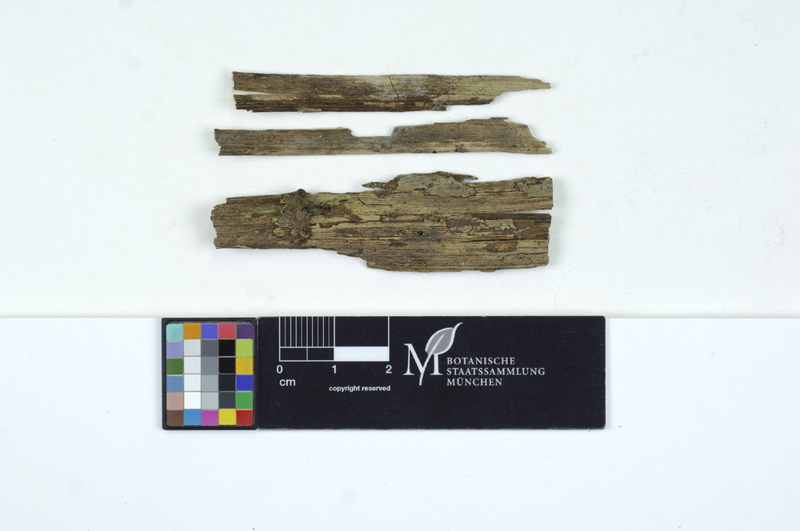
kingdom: Fungi
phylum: Basidiomycota
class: Agaricomycetes
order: Cantharellales
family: Oliveoniaceae
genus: Oliveonia
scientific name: Oliveonia pauxilla
